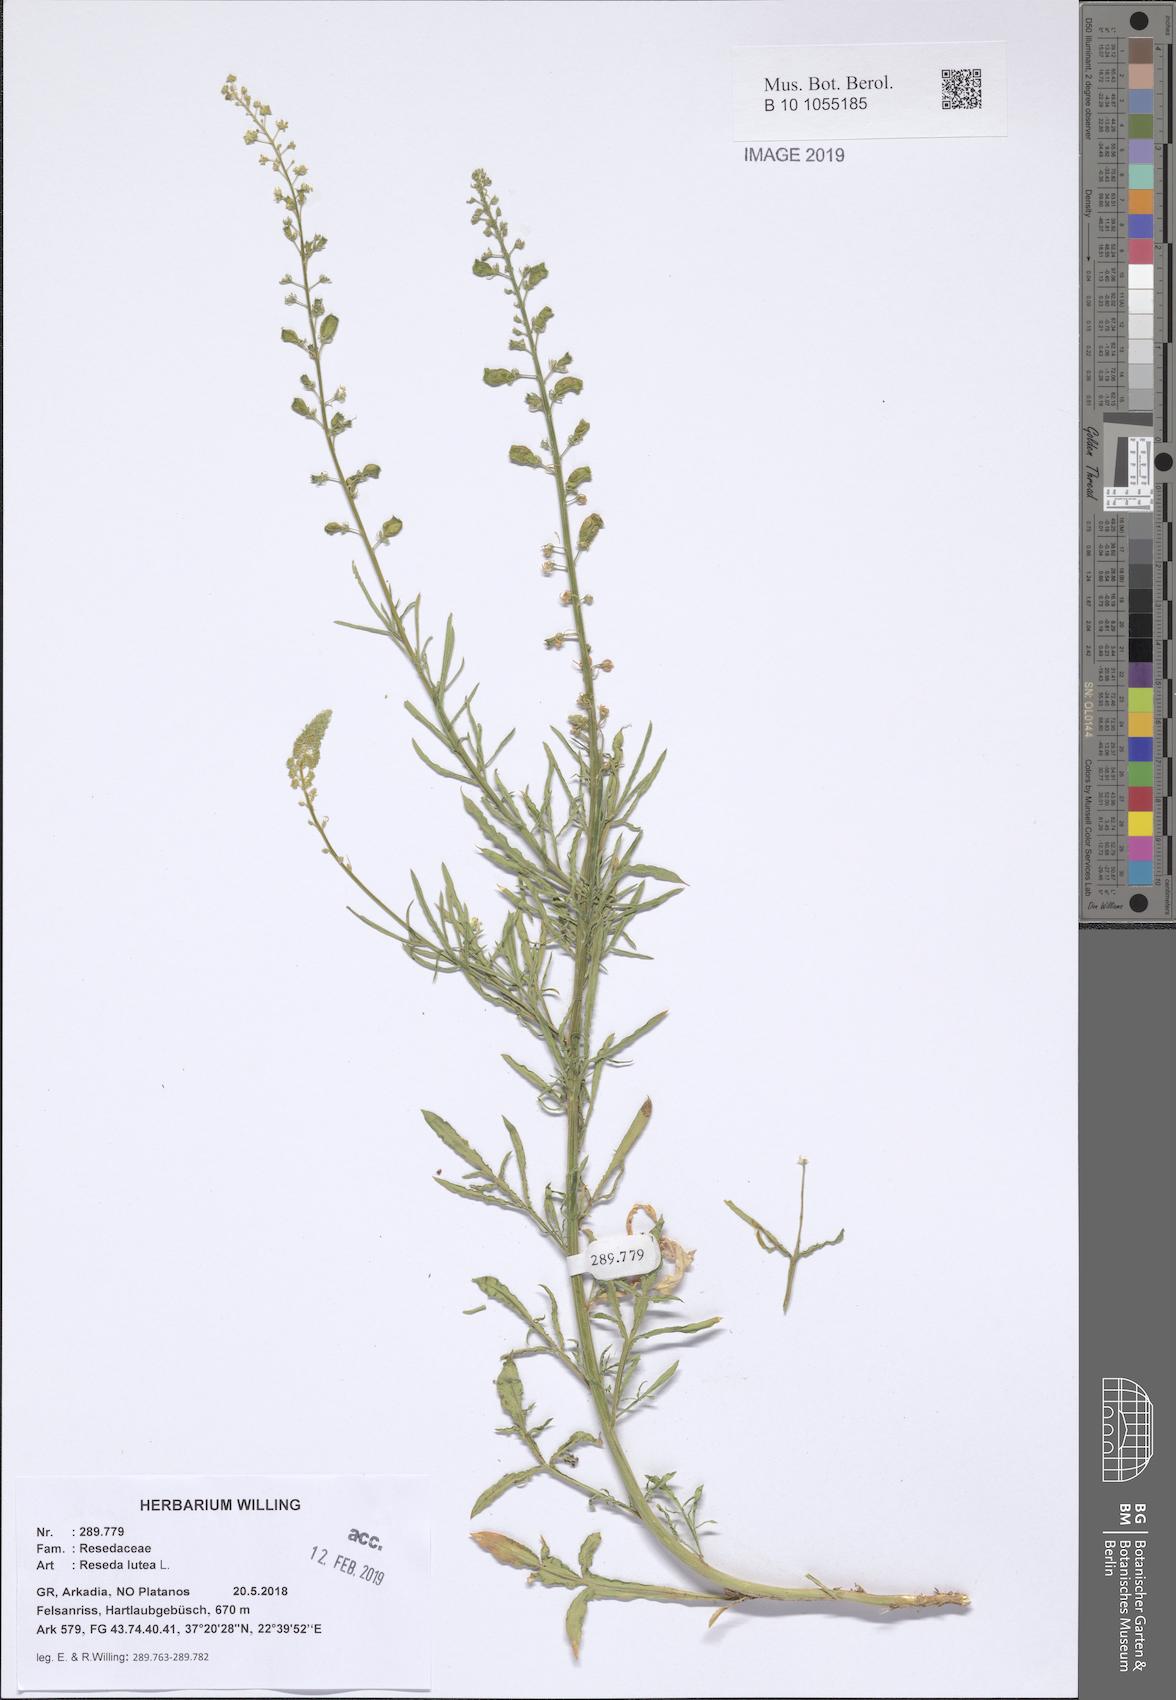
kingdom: Plantae
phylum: Tracheophyta
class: Magnoliopsida
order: Brassicales
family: Resedaceae
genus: Reseda
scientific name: Reseda lutea
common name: Wild mignonette
